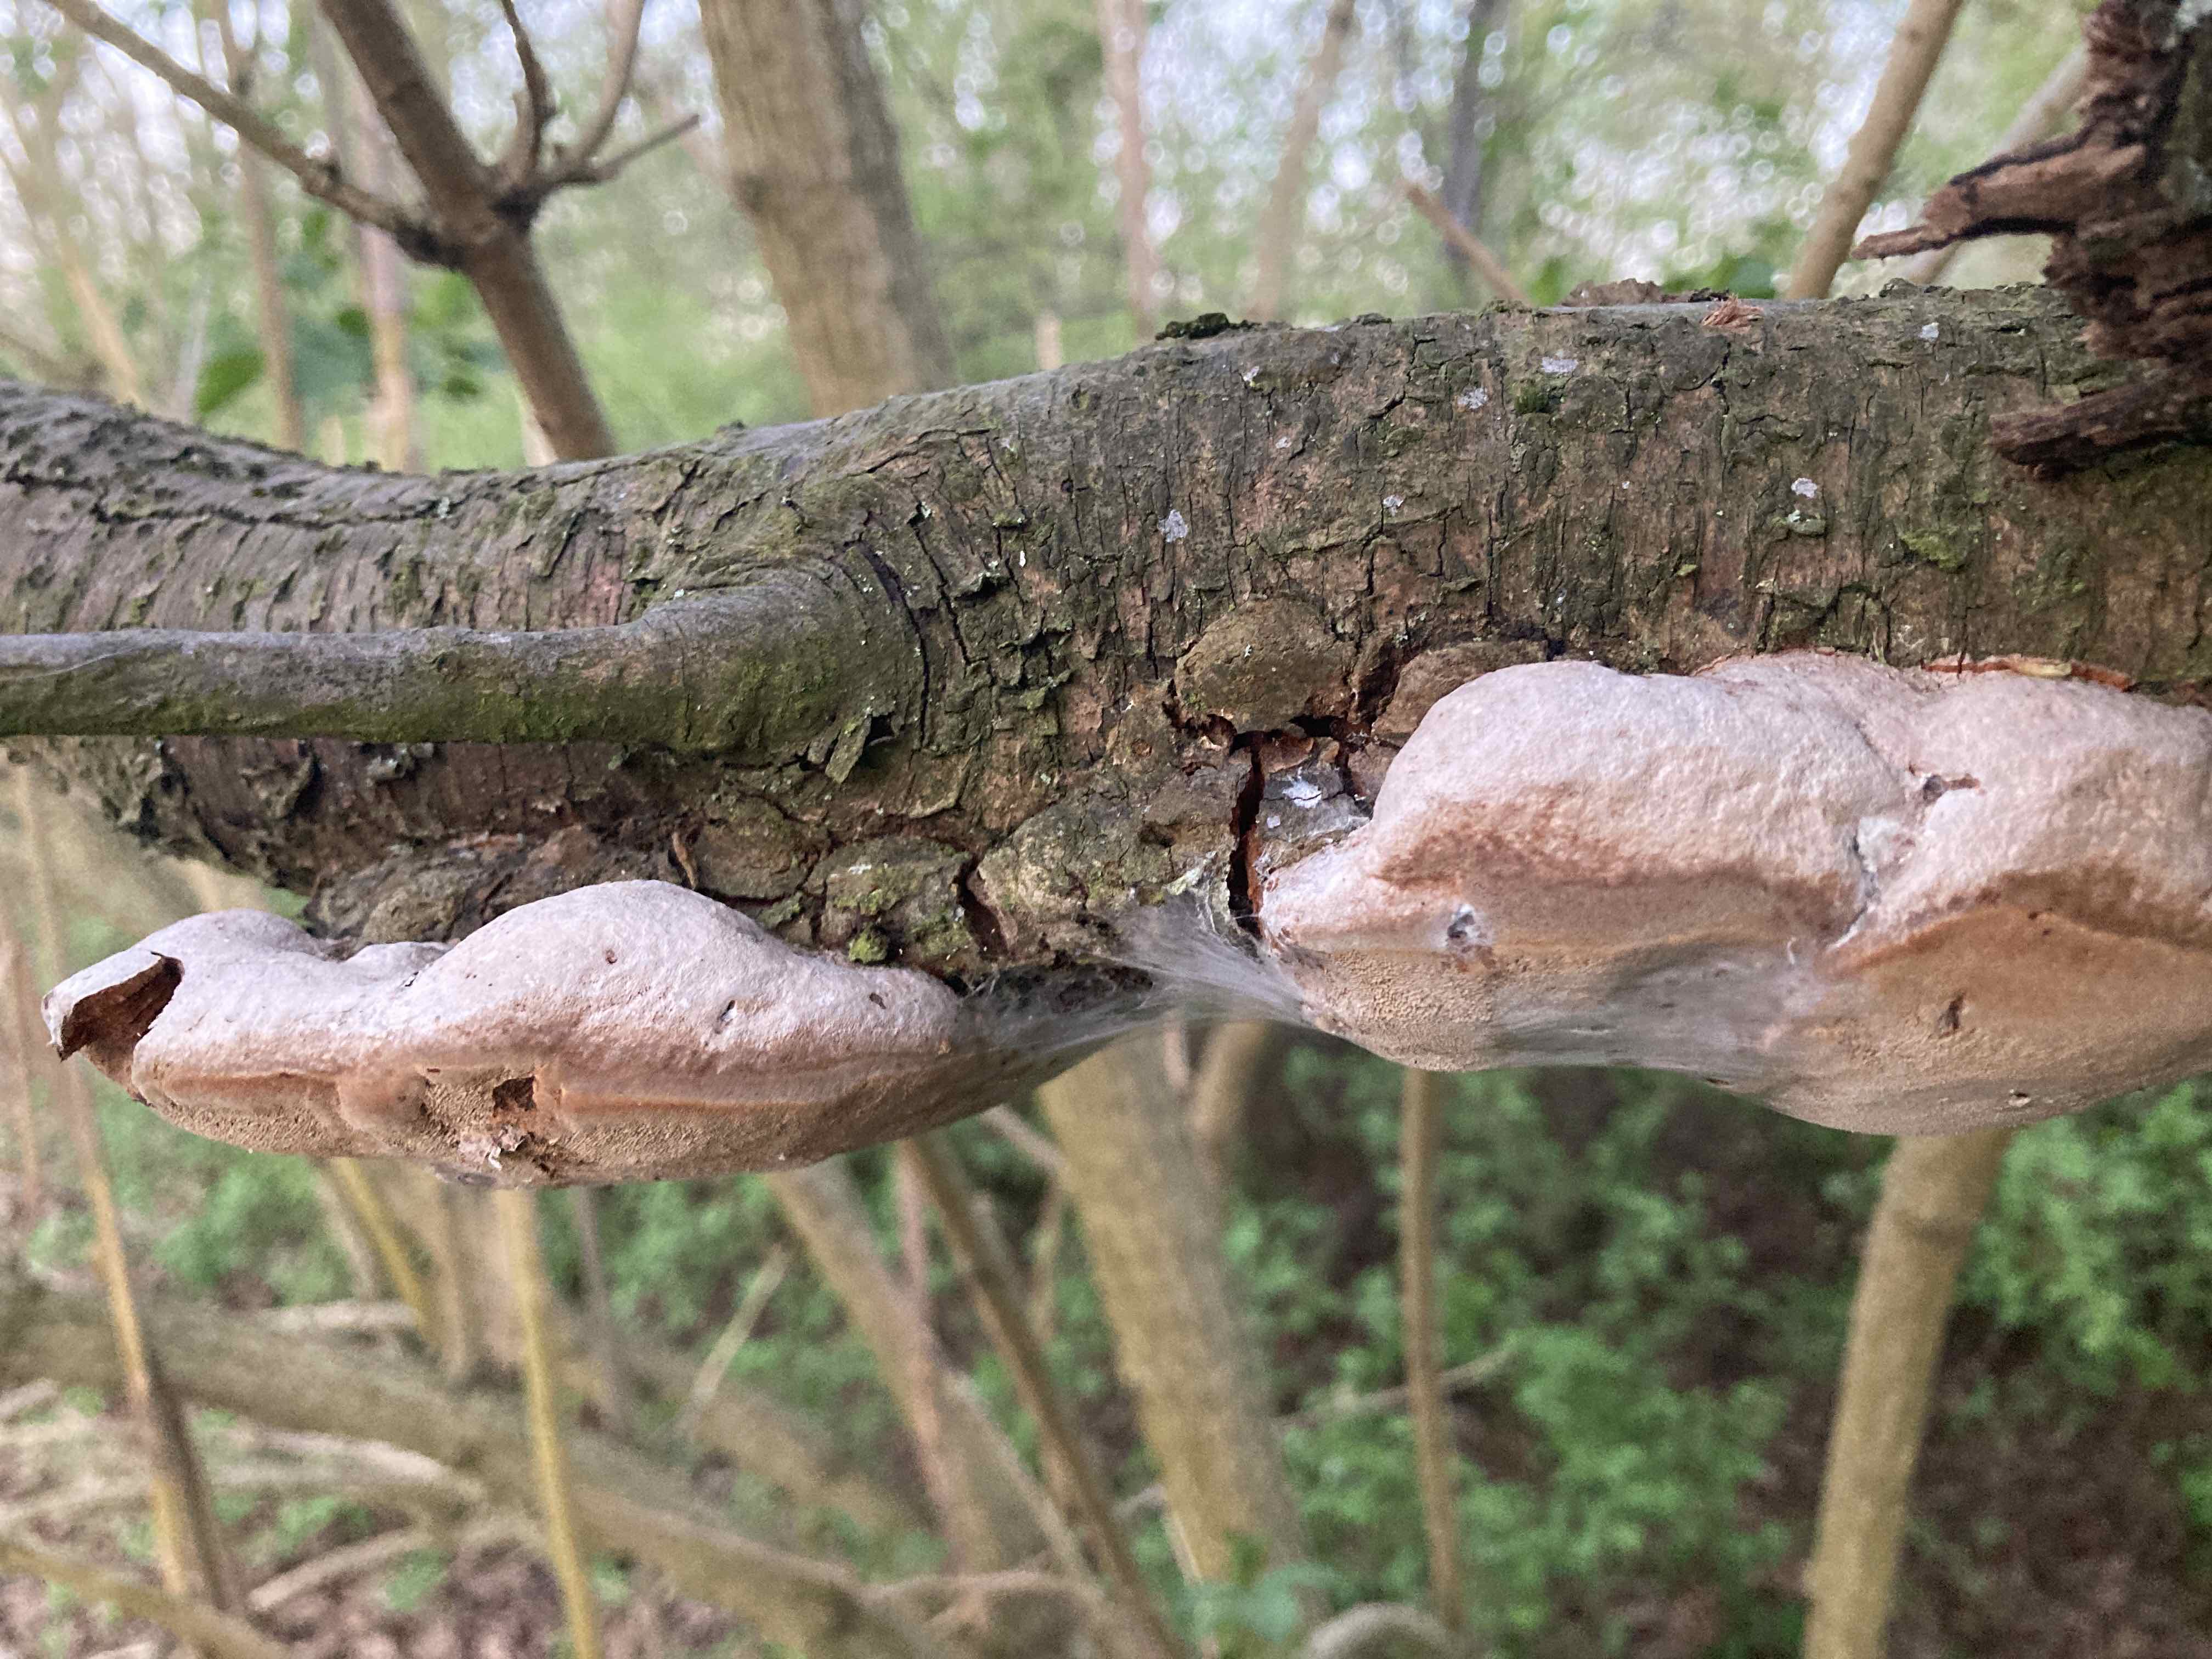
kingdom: Fungi
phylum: Basidiomycota
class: Agaricomycetes
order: Hymenochaetales
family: Hymenochaetaceae
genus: Phellinus
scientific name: Phellinus pomaceus
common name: blomme-ildporesvamp
